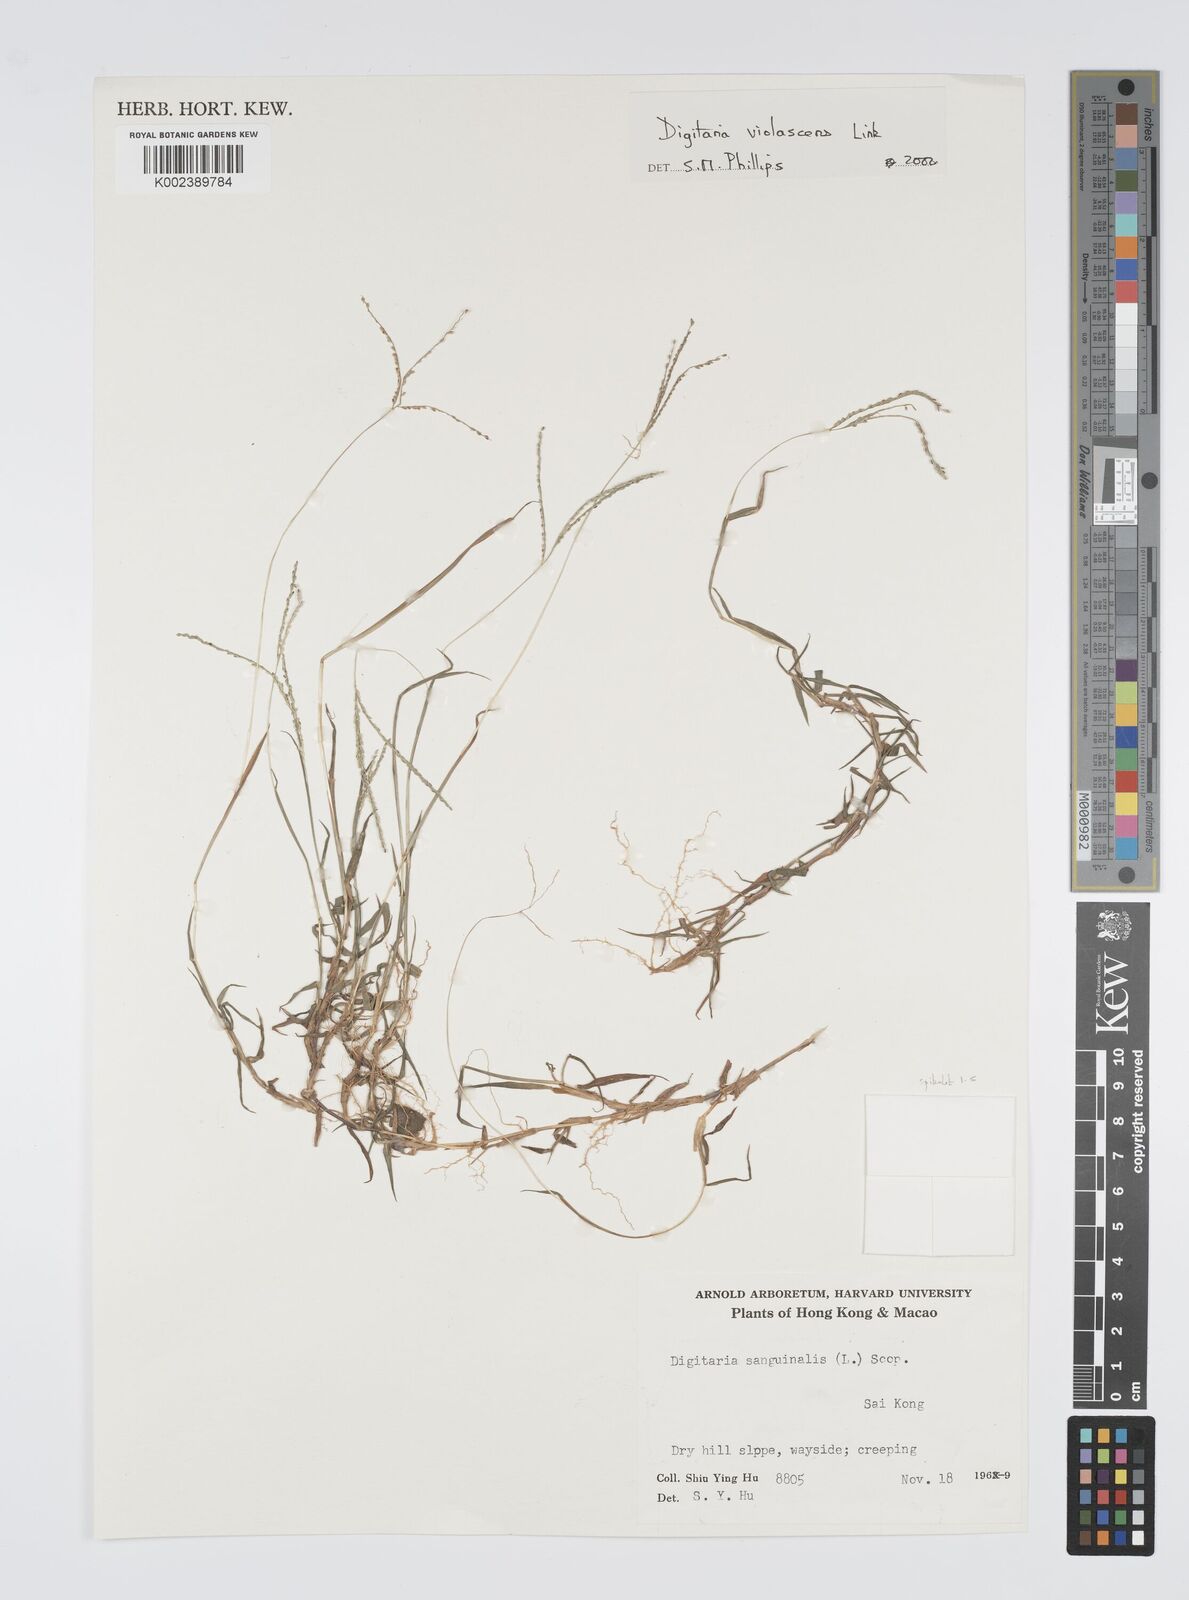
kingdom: Plantae
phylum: Tracheophyta
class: Liliopsida
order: Poales
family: Poaceae
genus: Digitaria
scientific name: Digitaria violascens
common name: Violet crabgrass
